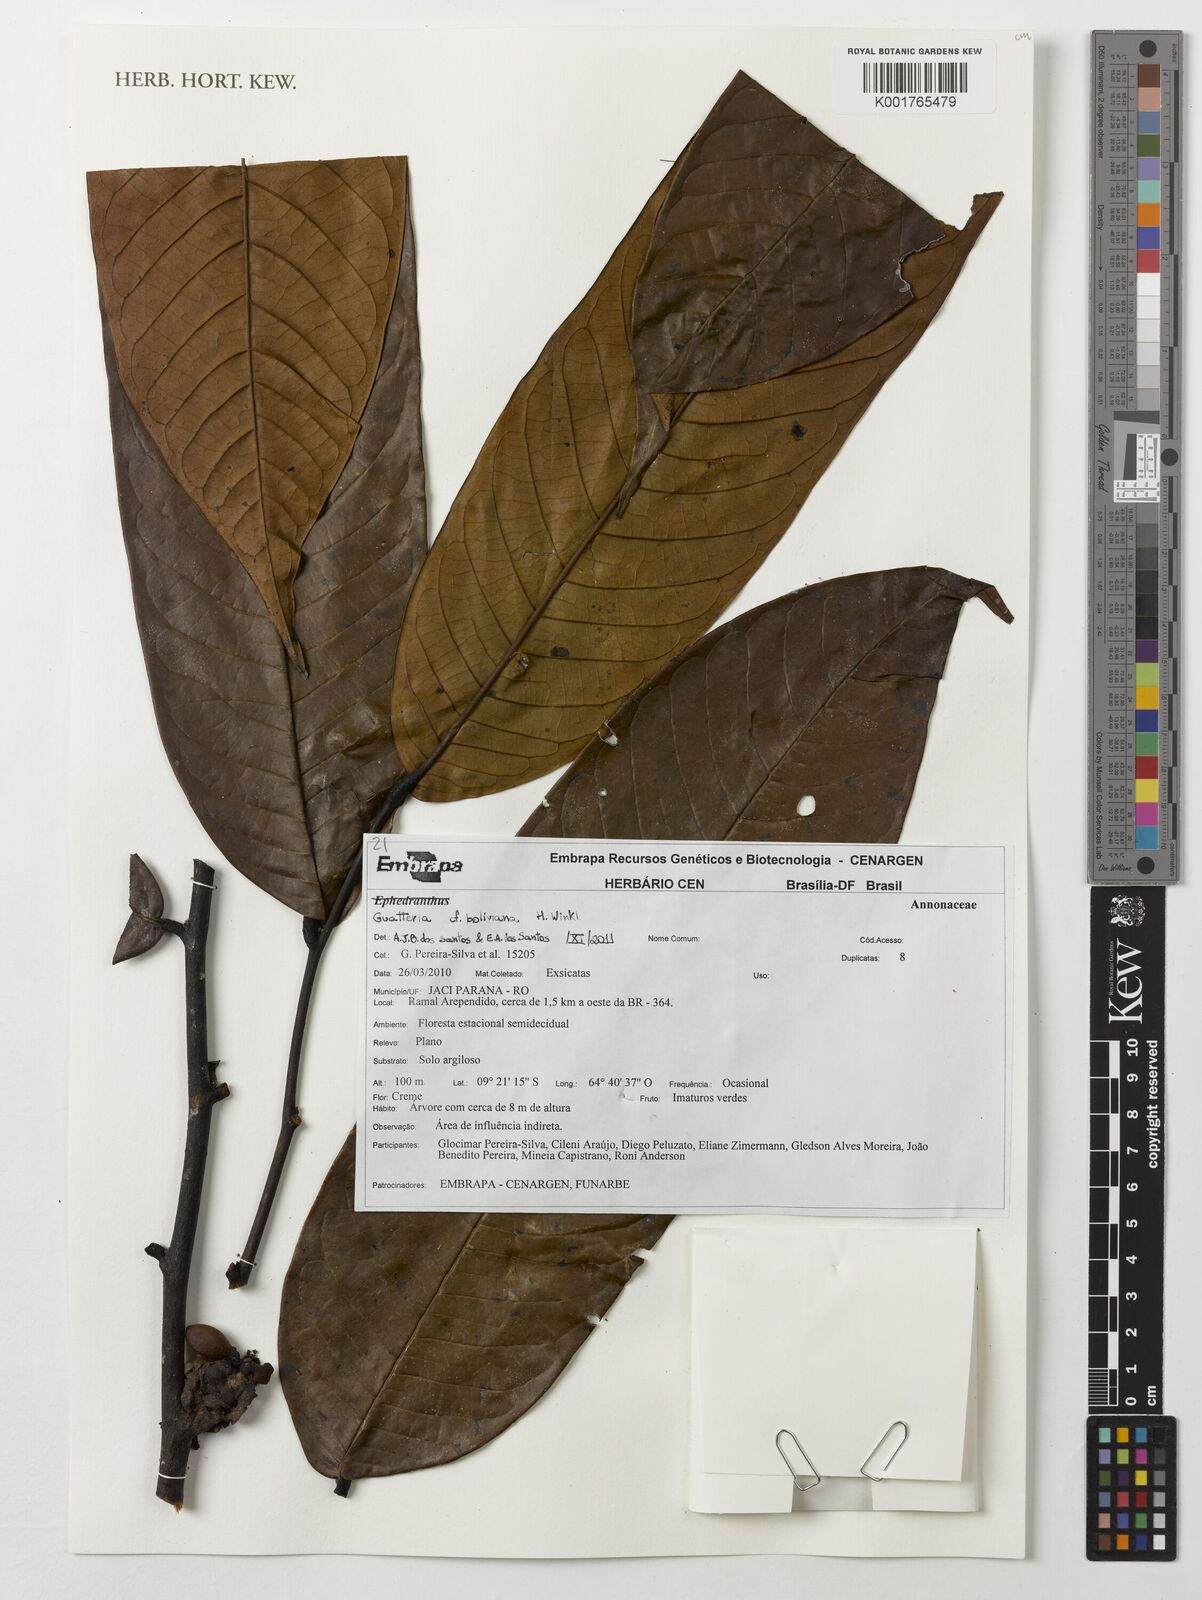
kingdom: Plantae
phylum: Tracheophyta
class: Magnoliopsida
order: Magnoliales
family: Annonaceae
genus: Guatteria
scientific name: Guatteria blepharophylla
